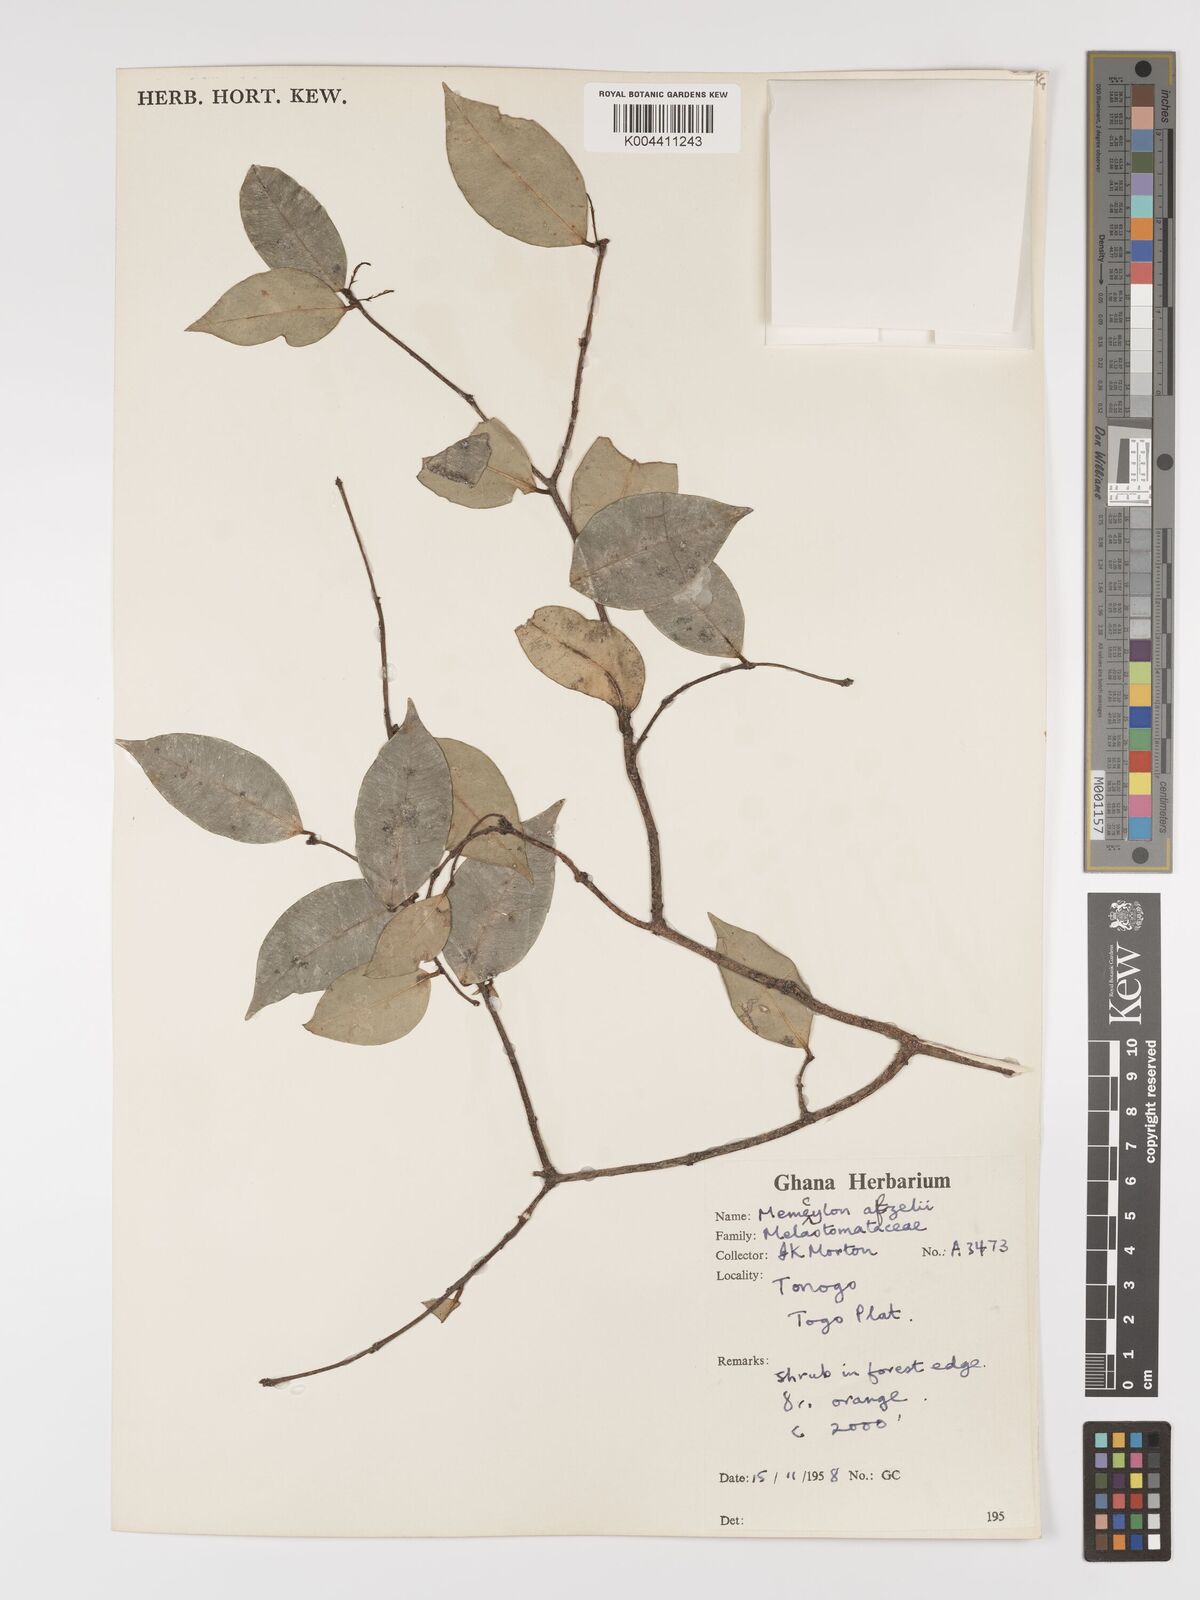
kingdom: Plantae
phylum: Tracheophyta
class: Magnoliopsida
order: Myrtales
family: Melastomataceae
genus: Memecylon
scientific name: Memecylon afzelii
